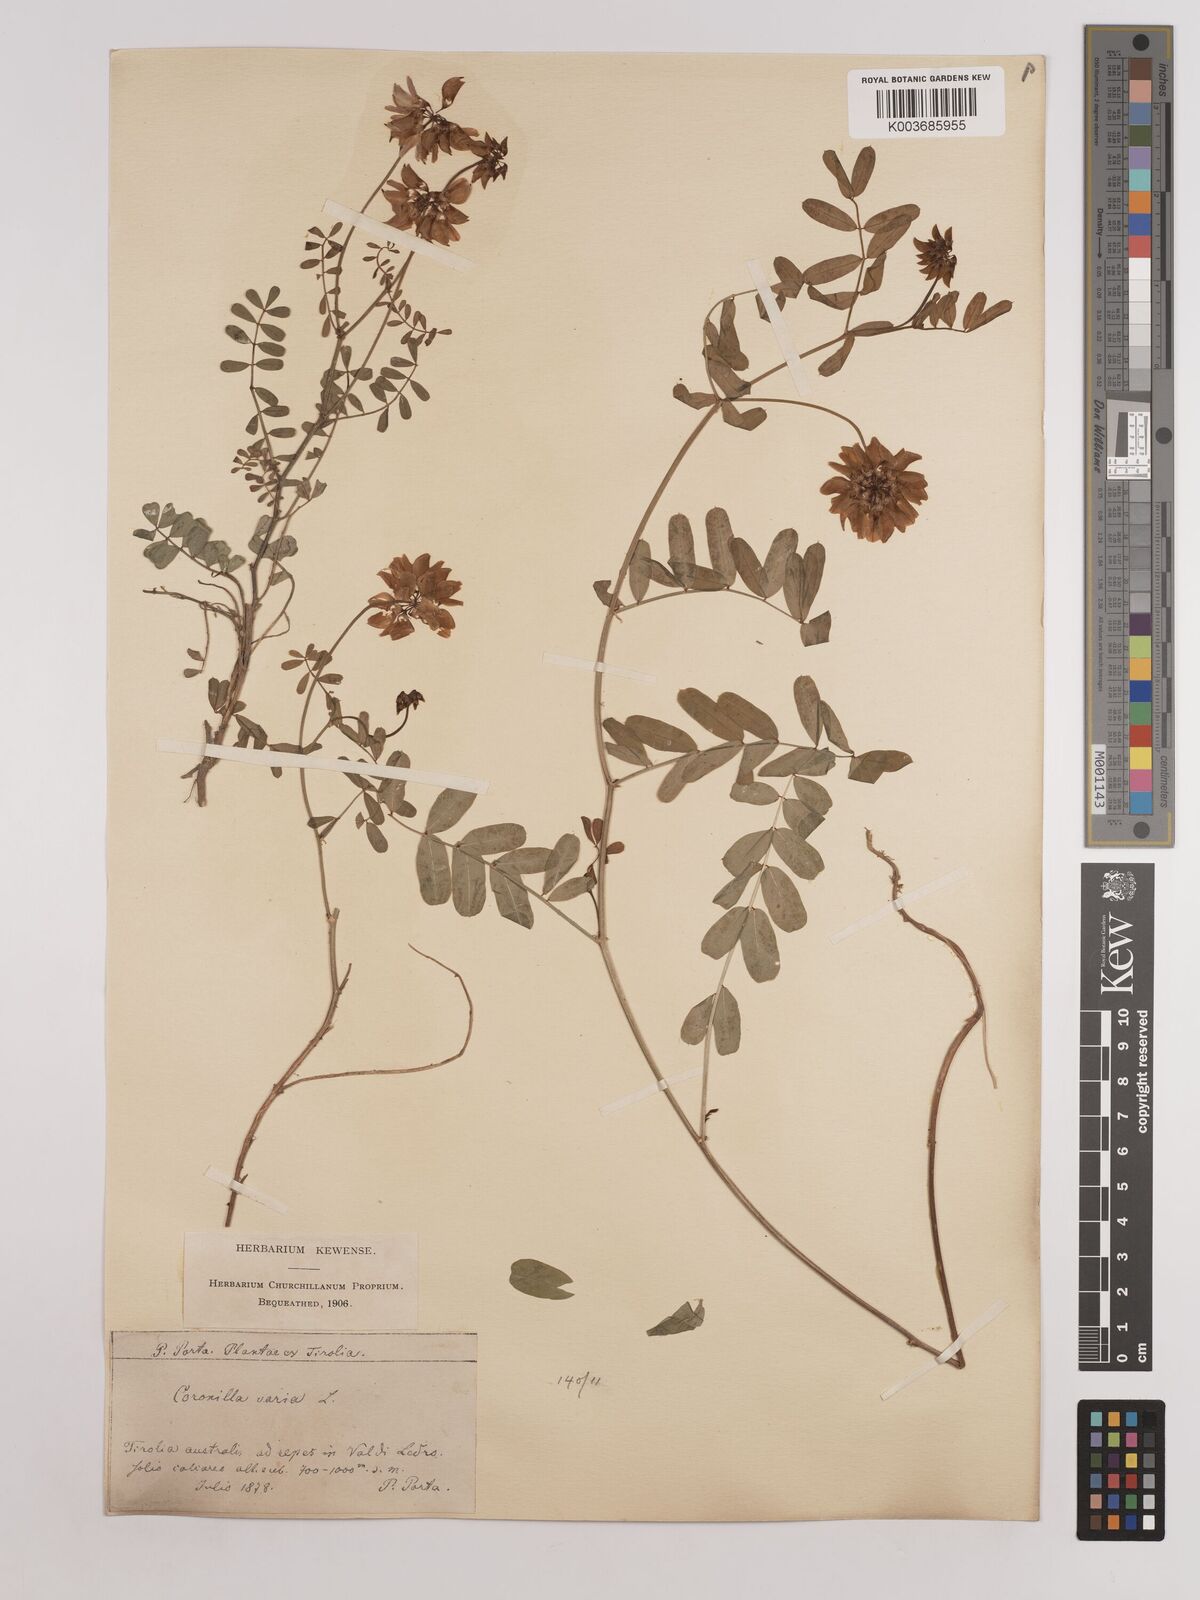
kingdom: Plantae
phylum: Tracheophyta
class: Magnoliopsida
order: Fabales
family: Fabaceae
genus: Coronilla
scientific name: Coronilla varia
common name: Crownvetch
